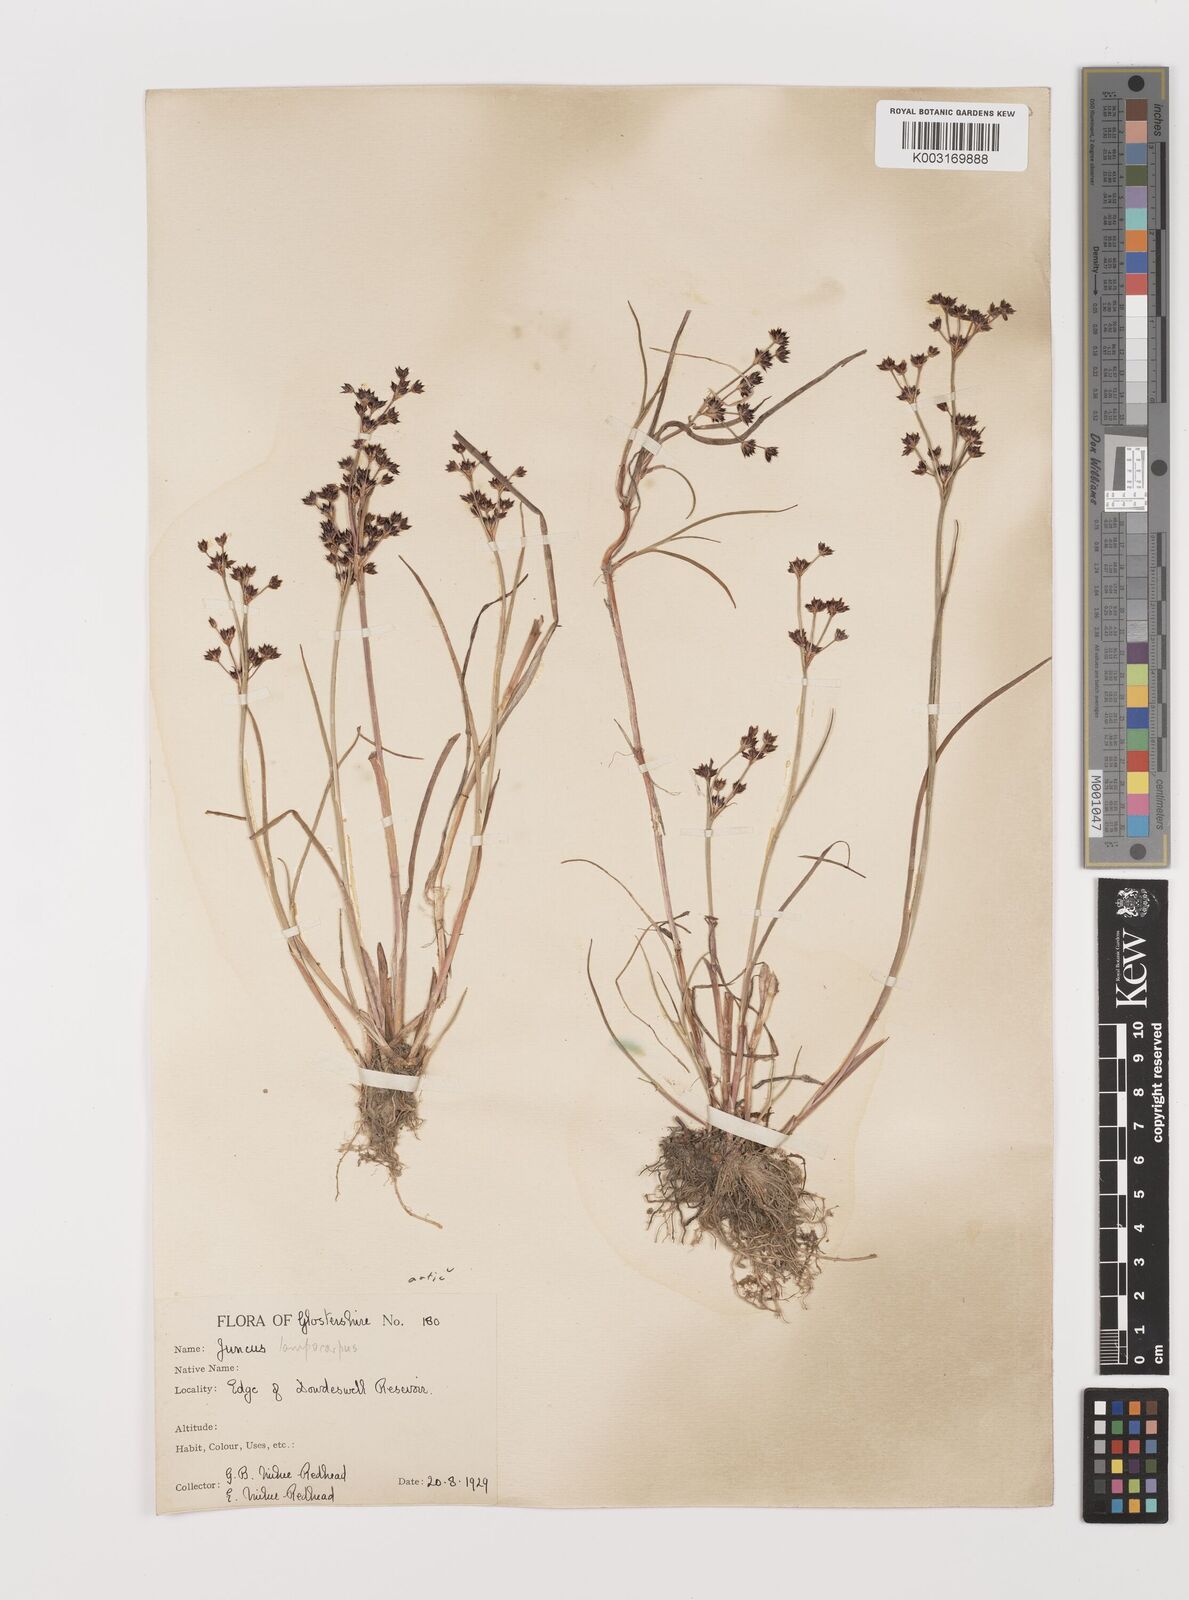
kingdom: Plantae
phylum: Tracheophyta
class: Liliopsida
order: Poales
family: Juncaceae
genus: Juncus
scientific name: Juncus articulatus
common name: Jointed rush
